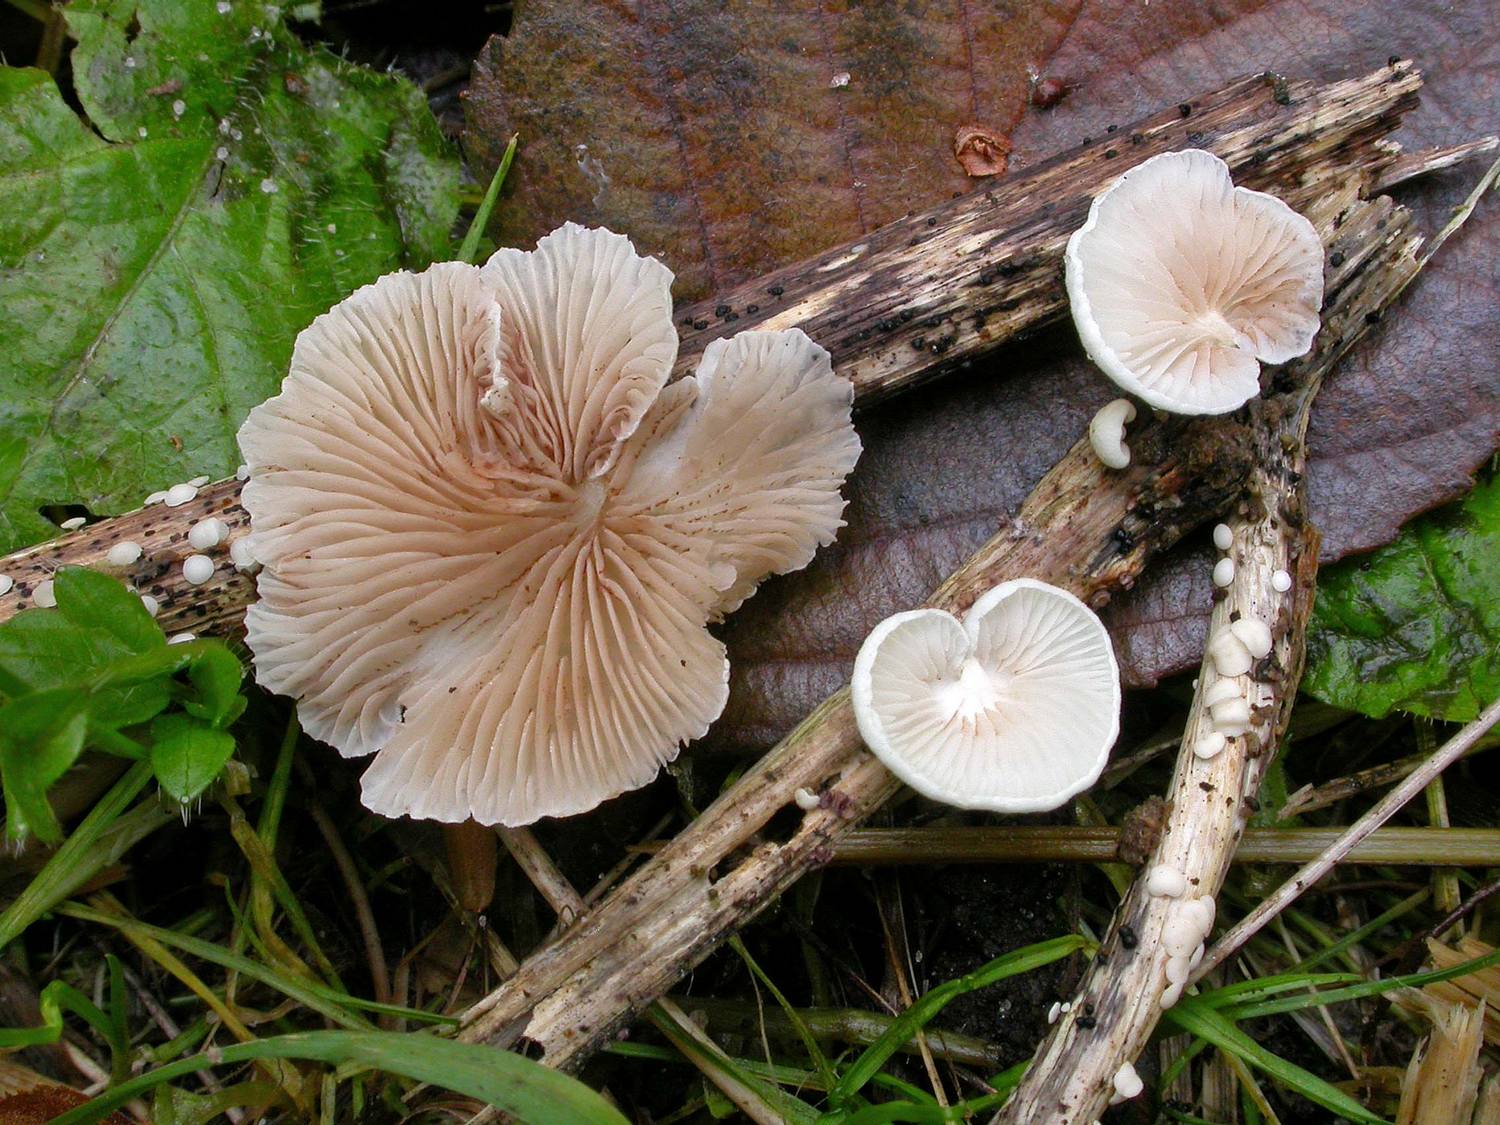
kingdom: Fungi
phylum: Basidiomycota
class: Agaricomycetes
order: Agaricales
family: Crepidotaceae
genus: Crepidotus
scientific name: Crepidotus luteolus
